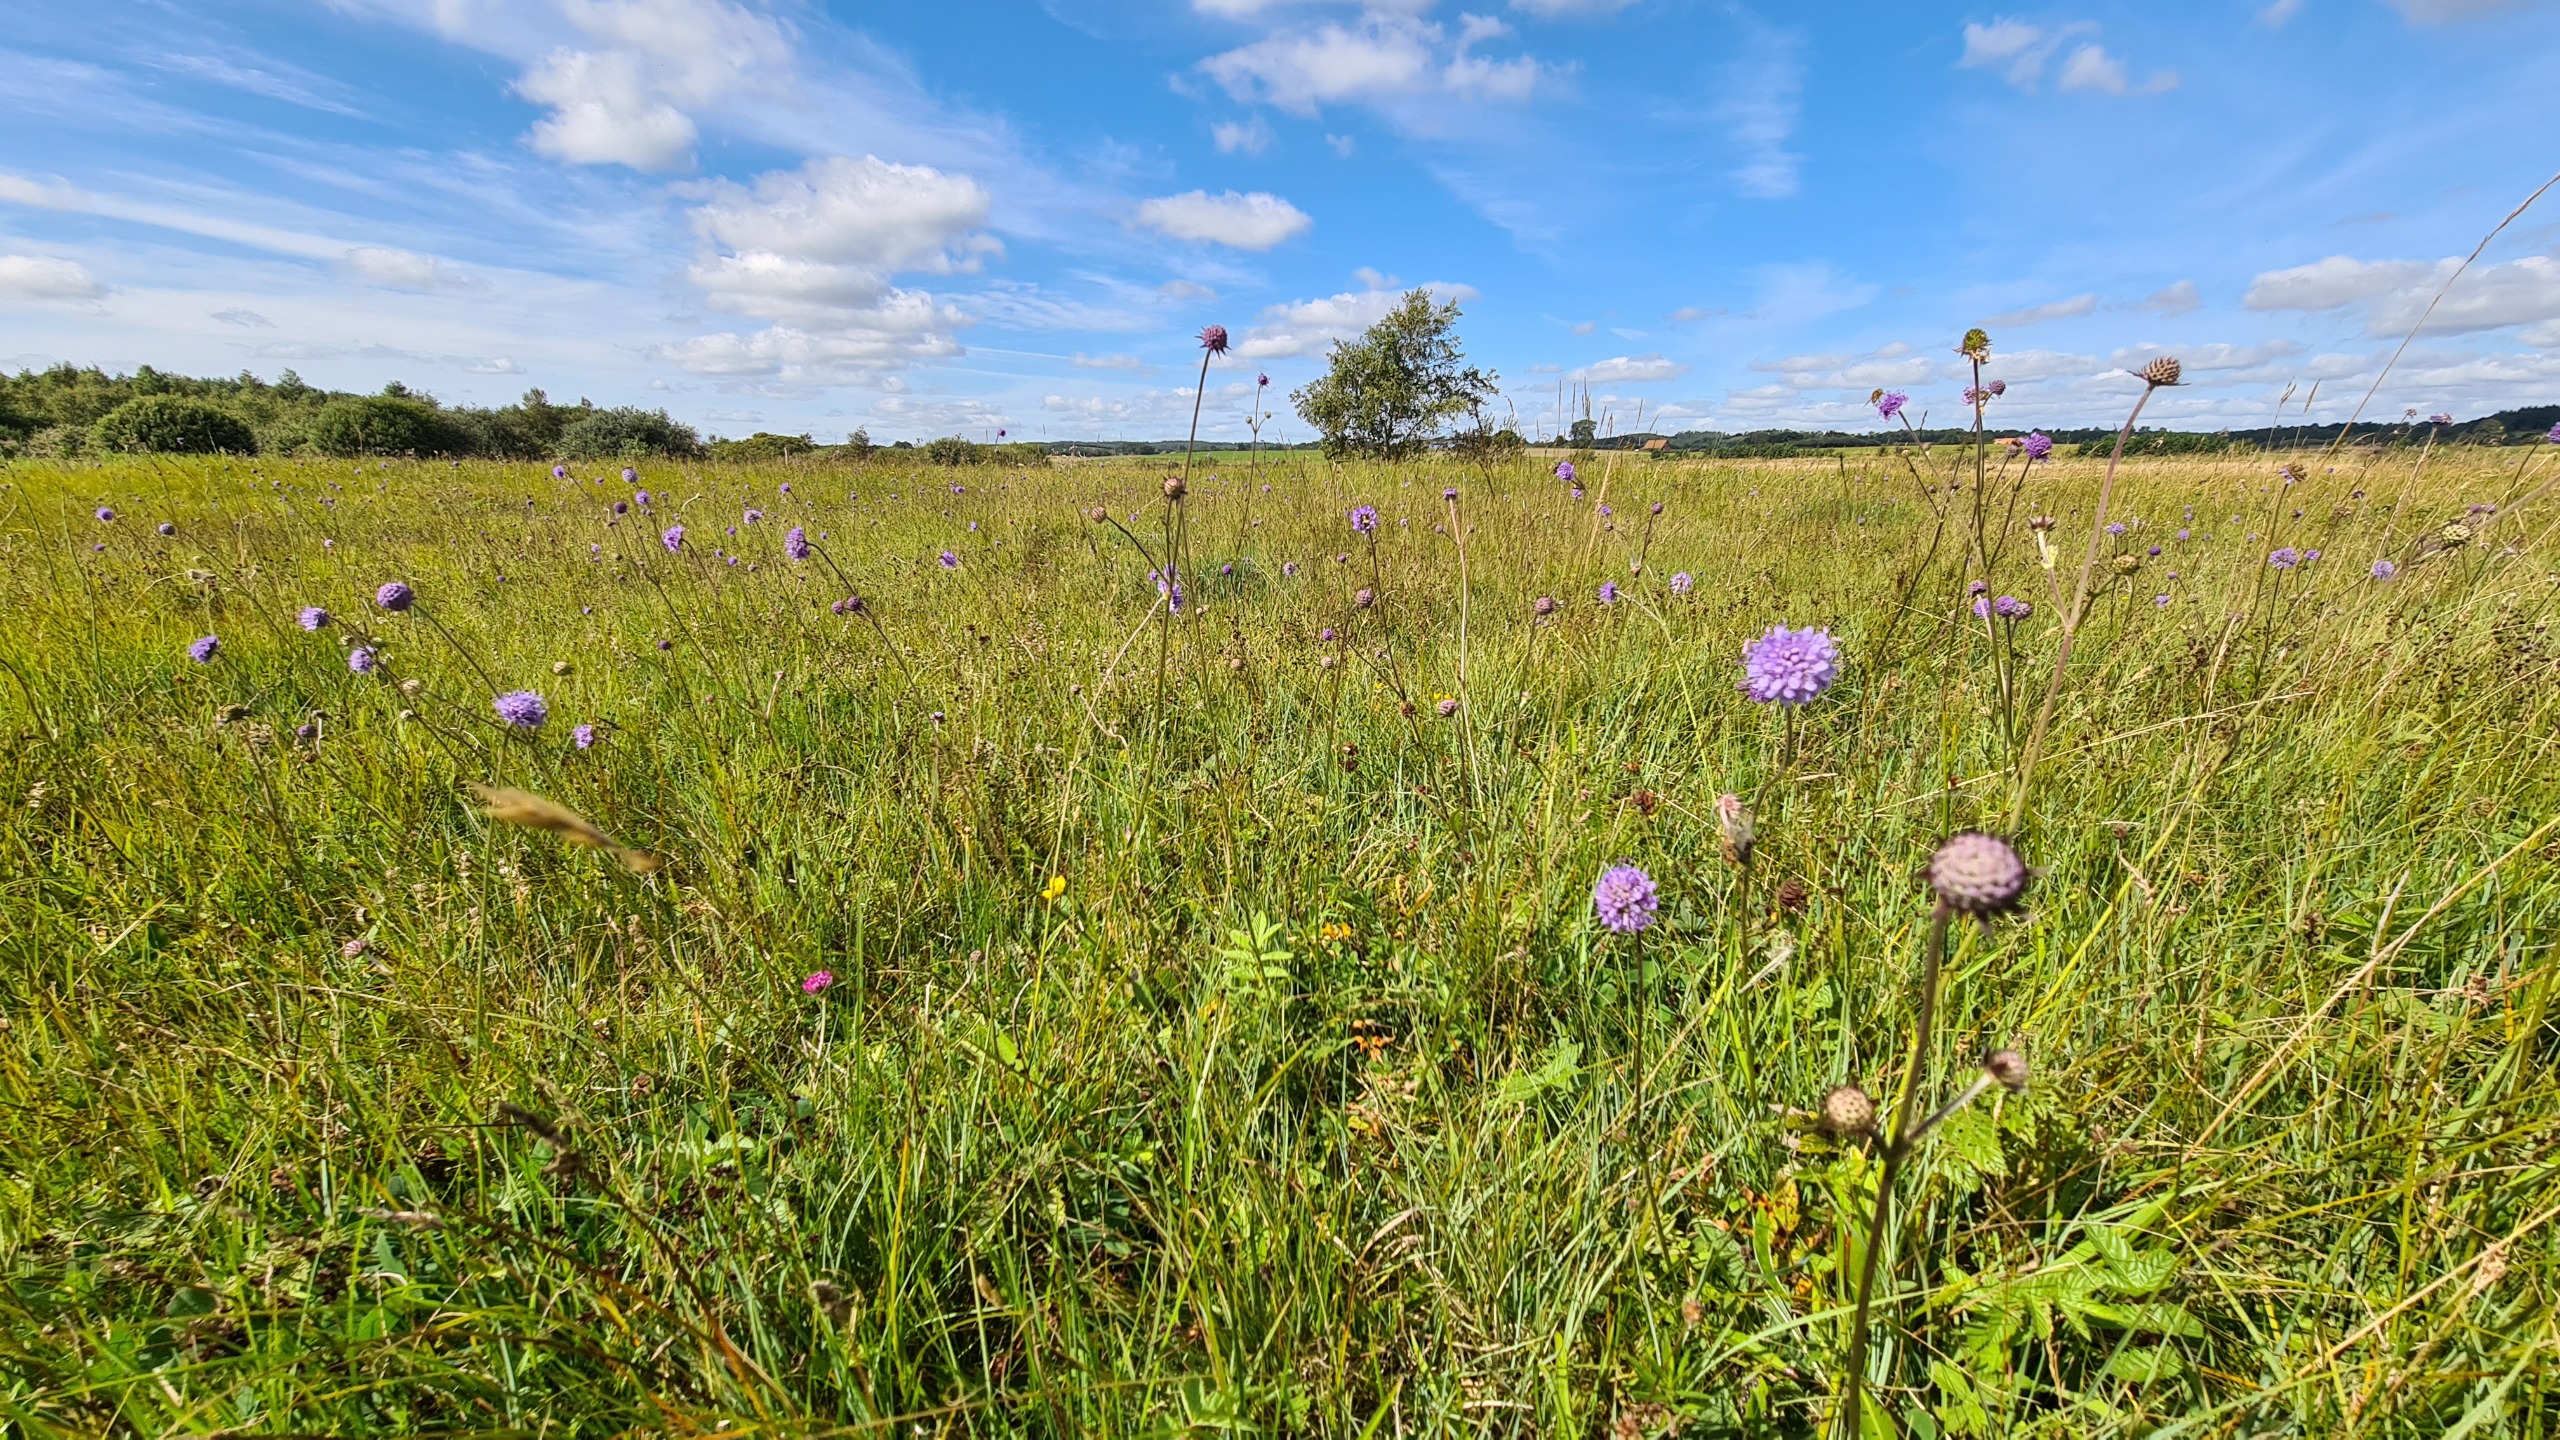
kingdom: Plantae
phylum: Tracheophyta
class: Magnoliopsida
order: Dipsacales
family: Caprifoliaceae
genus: Succisa
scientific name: Succisa pratensis
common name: Djævelsbid
